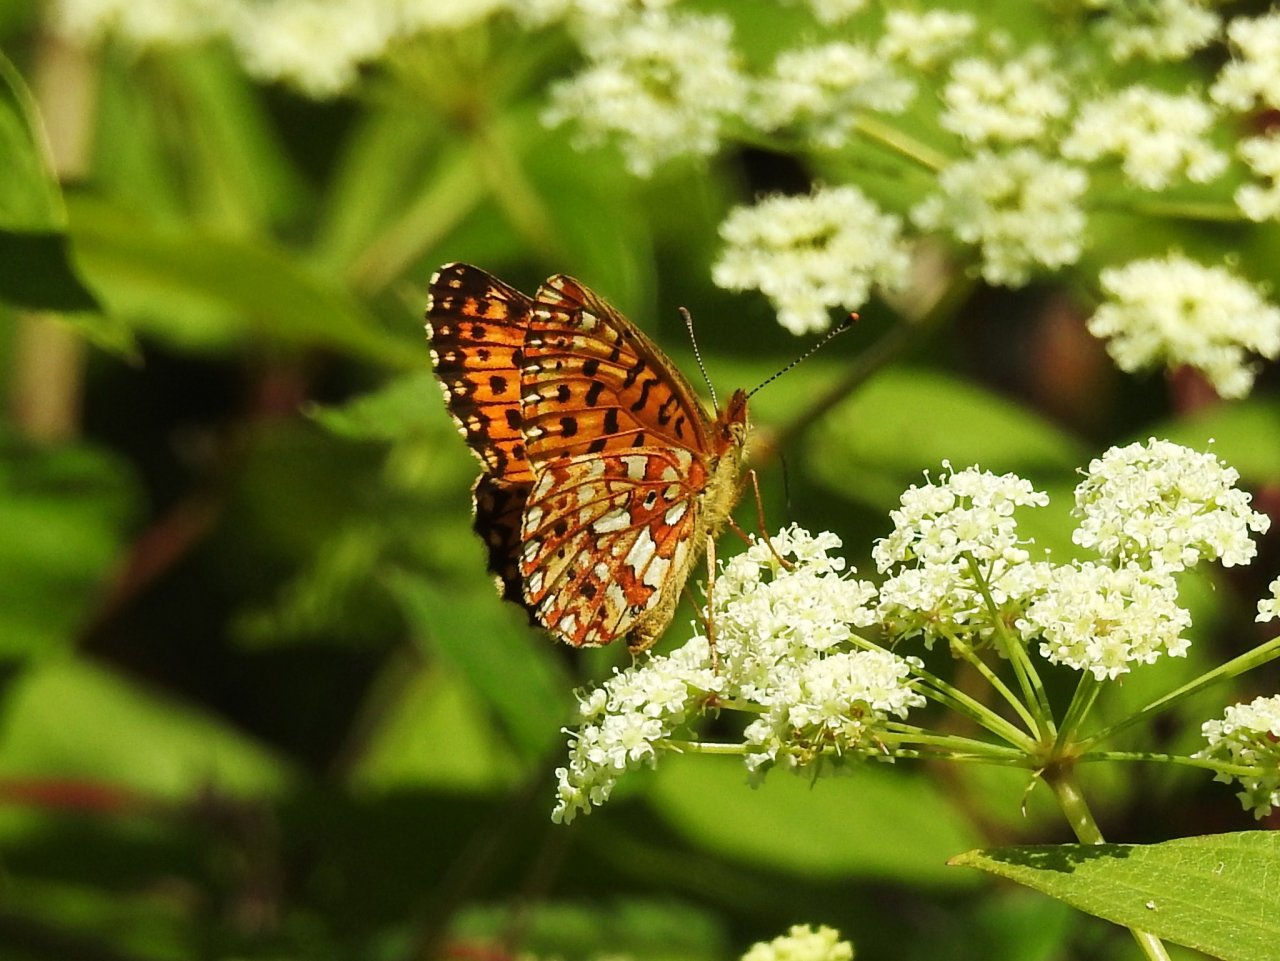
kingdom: Animalia
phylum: Arthropoda
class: Insecta
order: Lepidoptera
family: Nymphalidae
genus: Boloria
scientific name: Boloria selene
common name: Silver-bordered Fritillary
